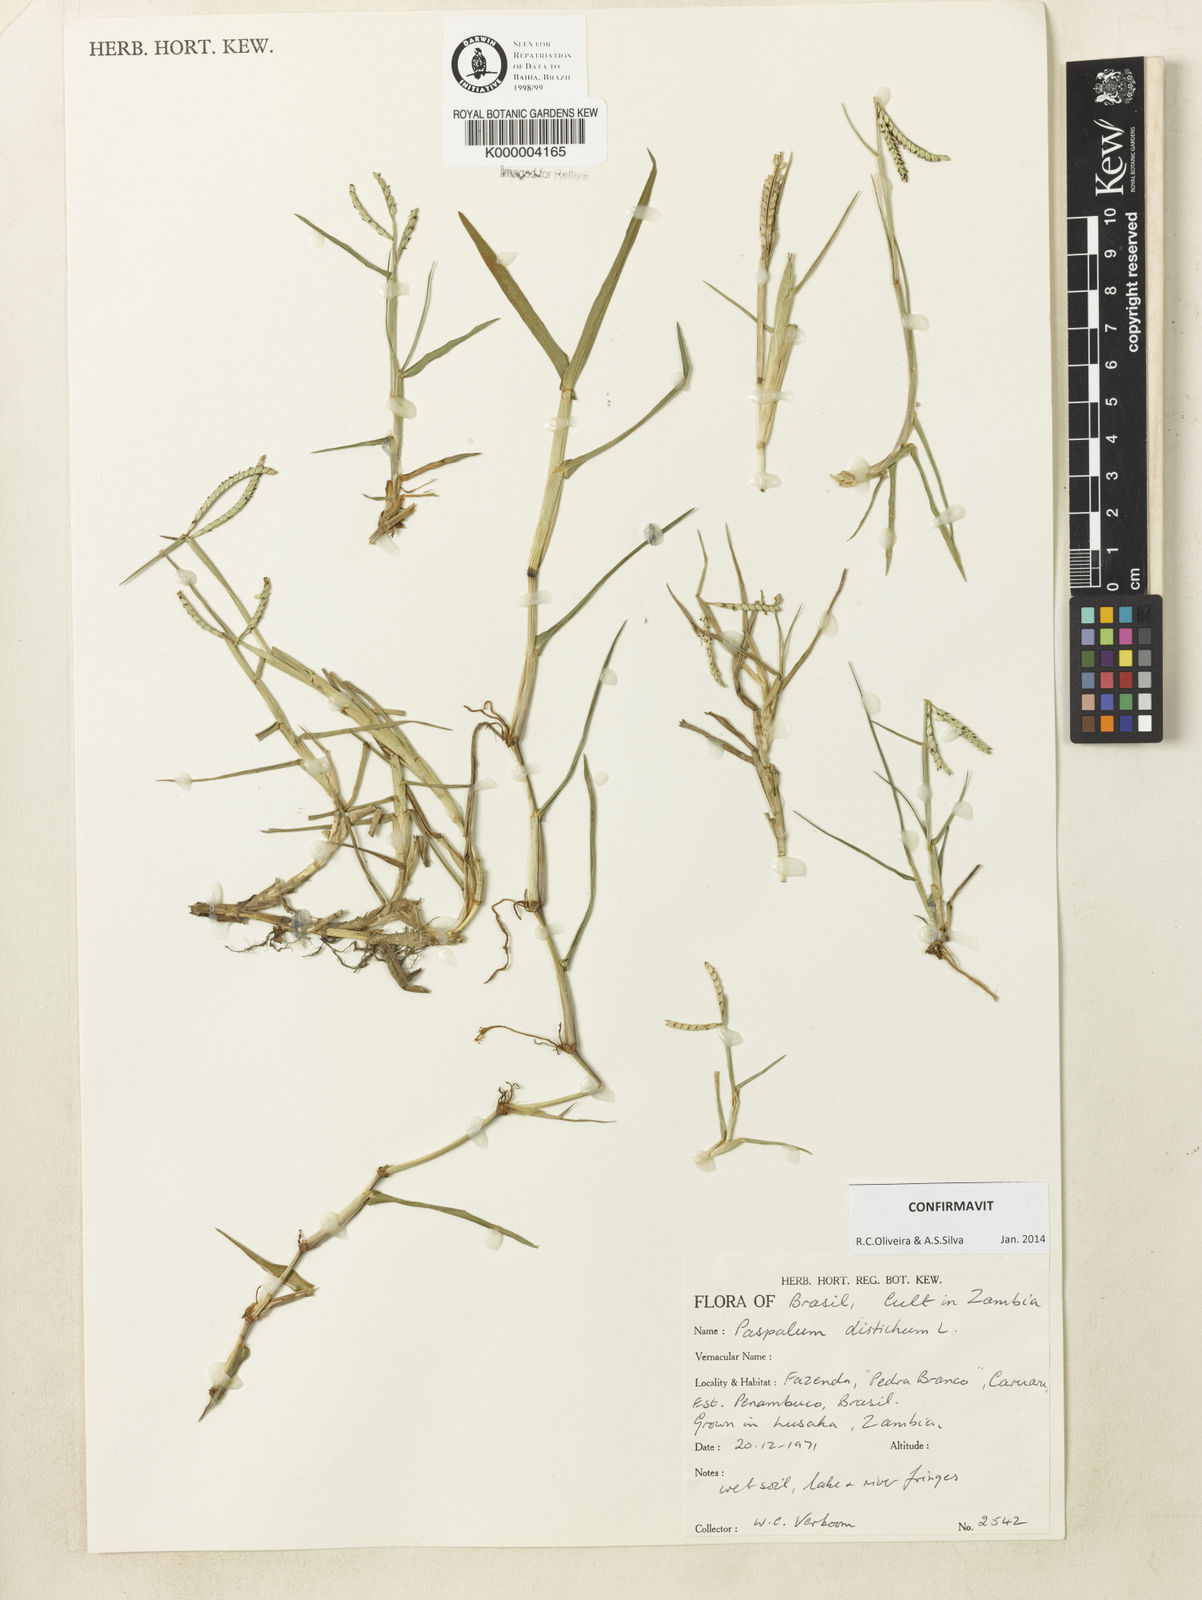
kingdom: Plantae
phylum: Tracheophyta
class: Liliopsida
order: Poales
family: Poaceae
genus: Paspalum
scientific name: Paspalum distichum
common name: Knotgrass
